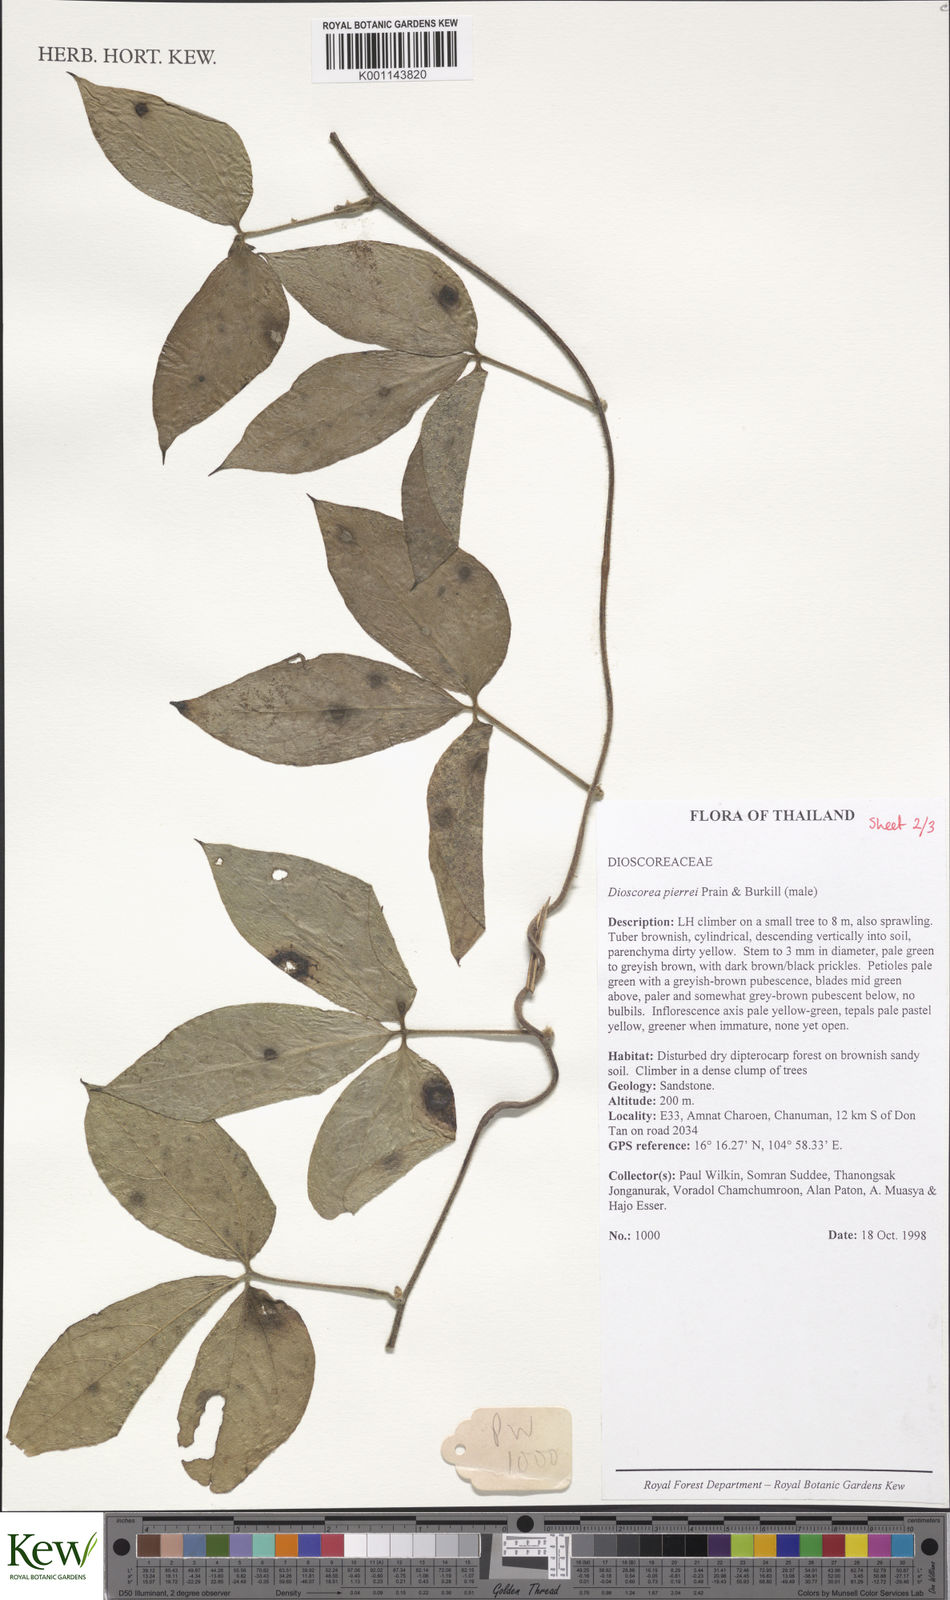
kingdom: Plantae
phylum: Tracheophyta
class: Liliopsida
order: Dioscoreales
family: Dioscoreaceae
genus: Dioscorea
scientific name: Dioscorea pierrei
